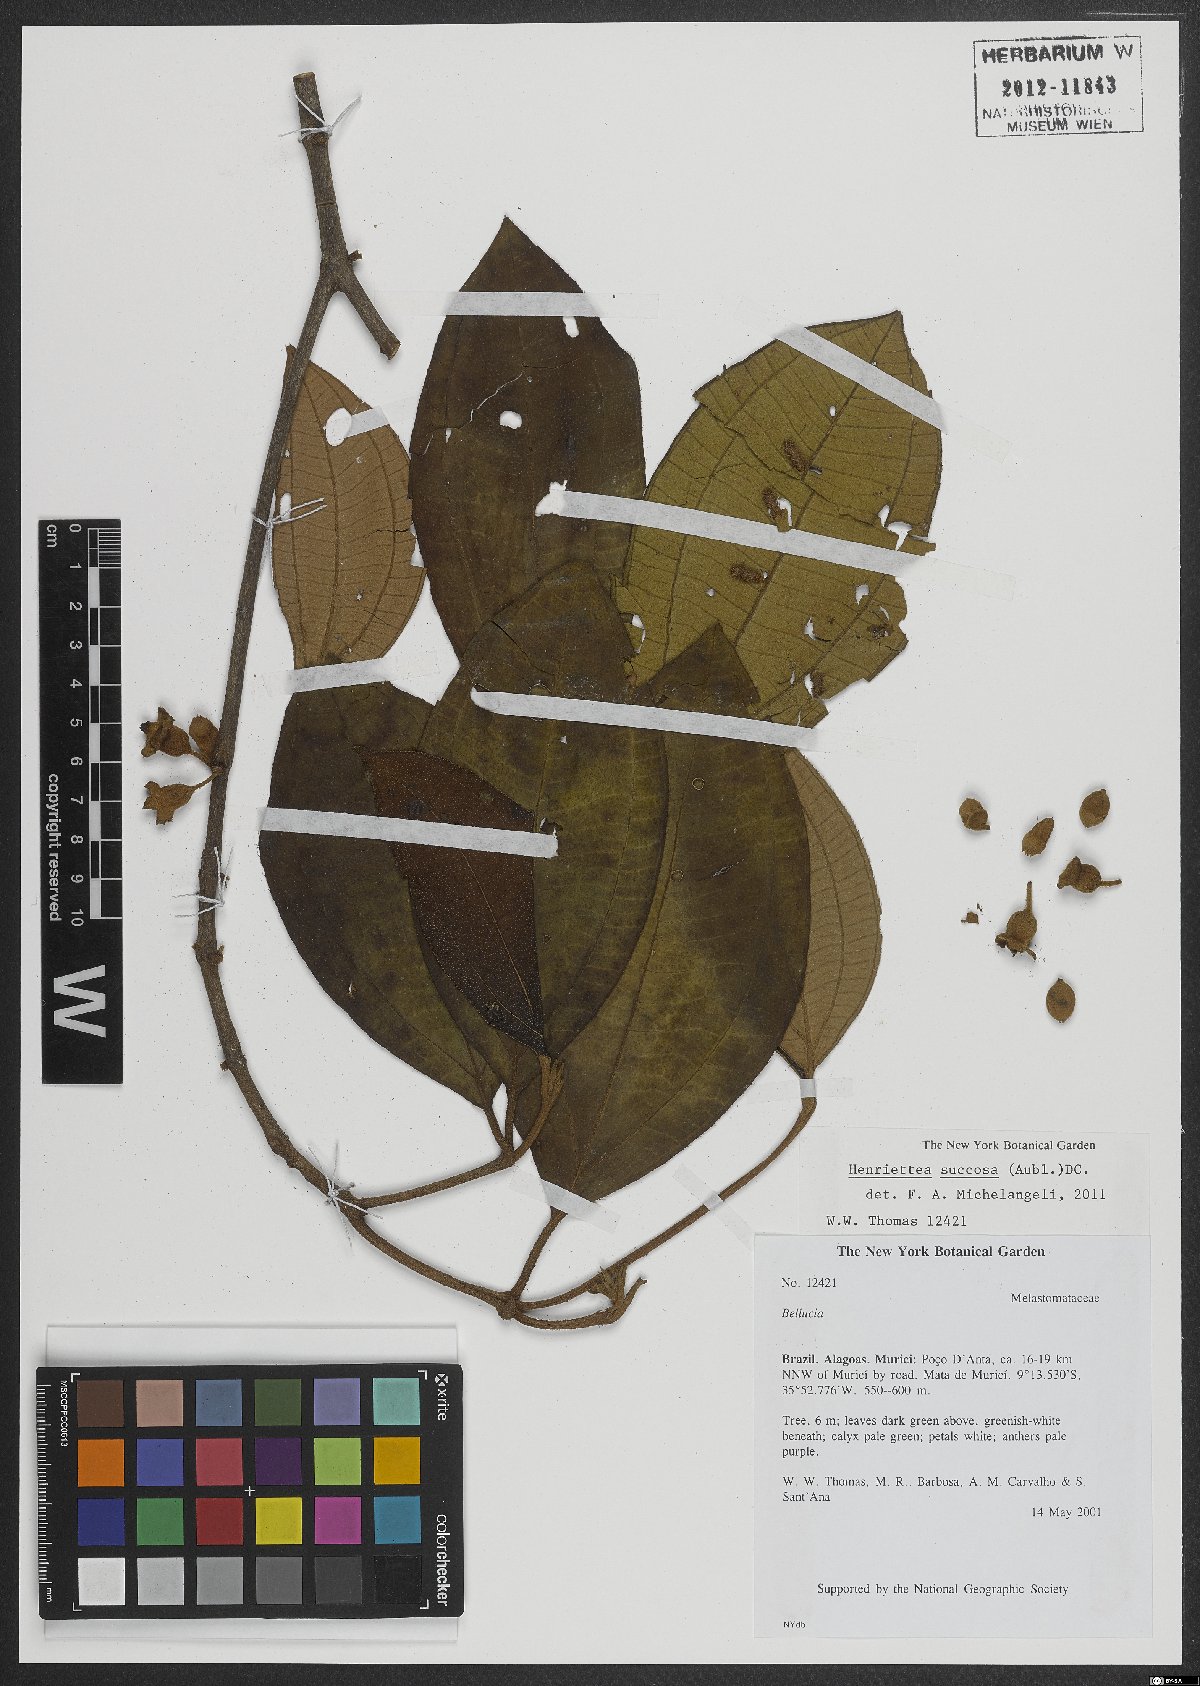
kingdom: Plantae
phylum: Tracheophyta
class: Magnoliopsida
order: Myrtales
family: Melastomataceae
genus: Henriettea
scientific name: Henriettea succosa
